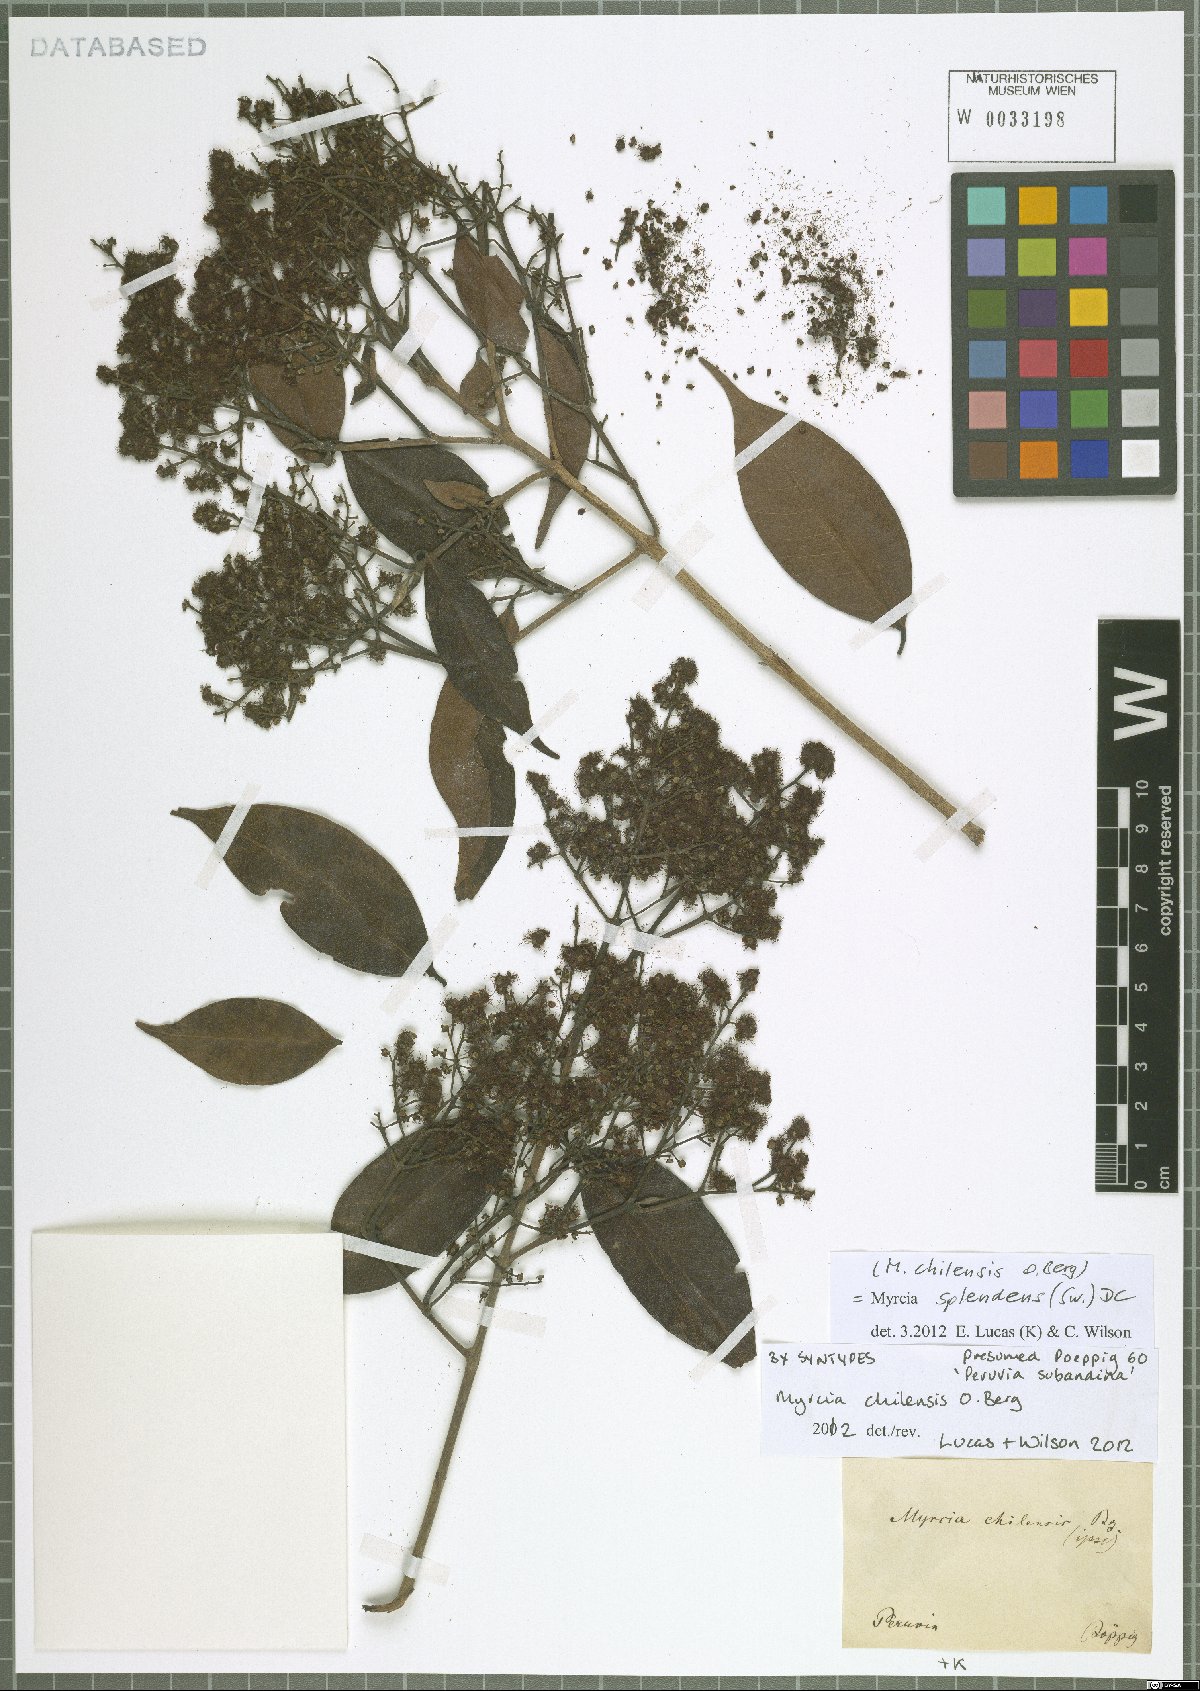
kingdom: Plantae
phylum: Tracheophyta
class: Magnoliopsida
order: Myrtales
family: Myrtaceae
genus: Myrcia
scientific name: Myrcia splendens
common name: Surinam cherry
